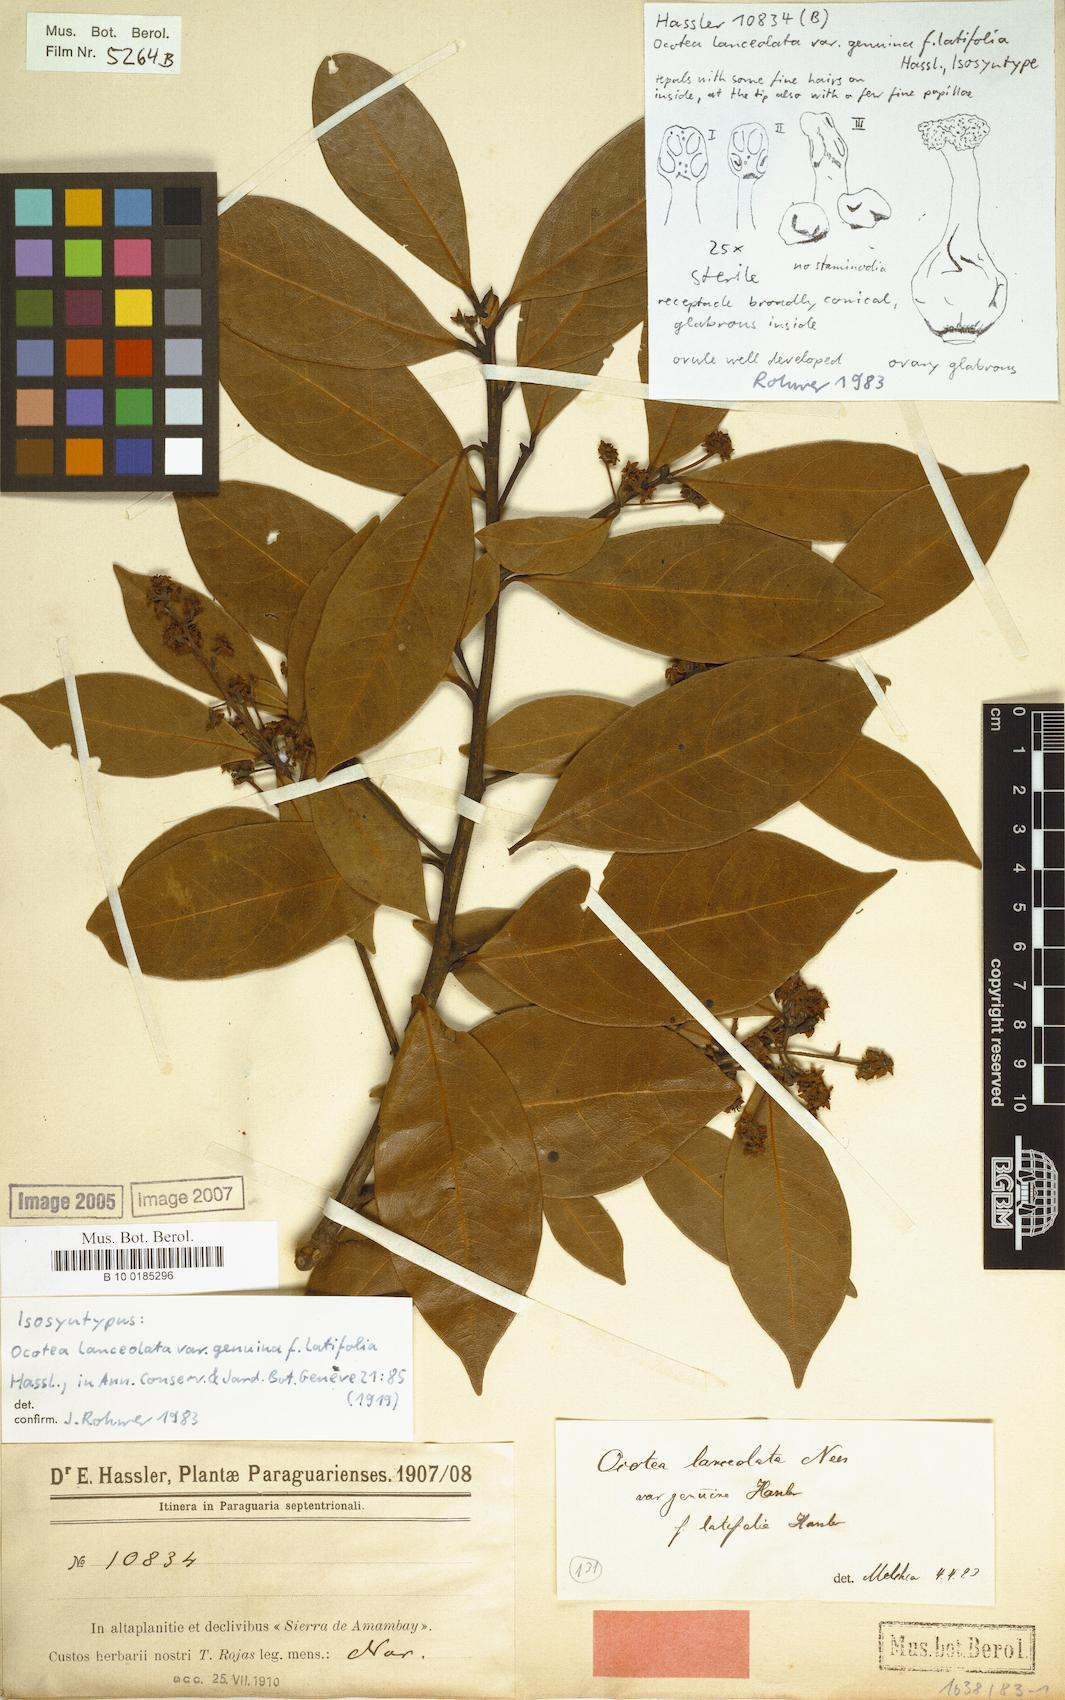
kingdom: Plantae
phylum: Tracheophyta
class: Magnoliopsida
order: Laurales
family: Lauraceae
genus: Ocotea
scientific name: Ocotea lancifolia
